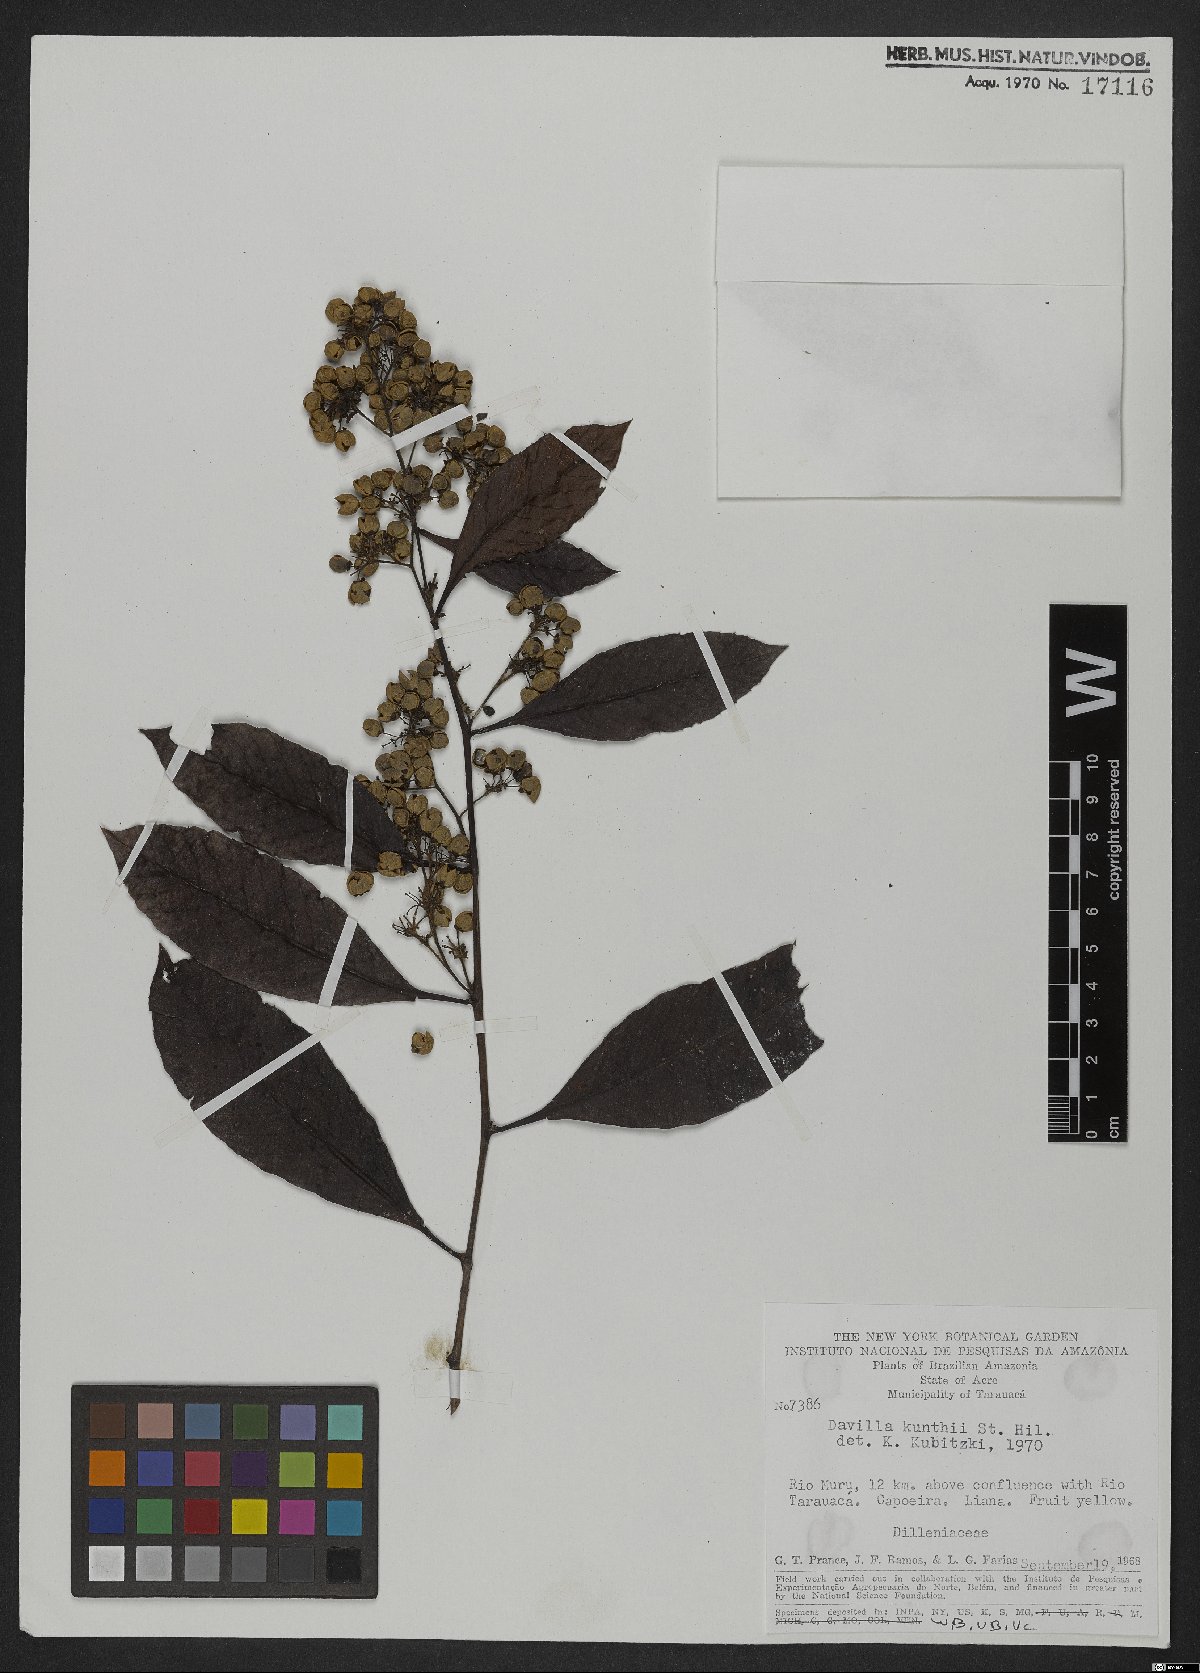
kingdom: Plantae
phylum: Tracheophyta
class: Magnoliopsida
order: Dilleniales
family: Dilleniaceae
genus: Davilla
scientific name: Davilla kunthii
